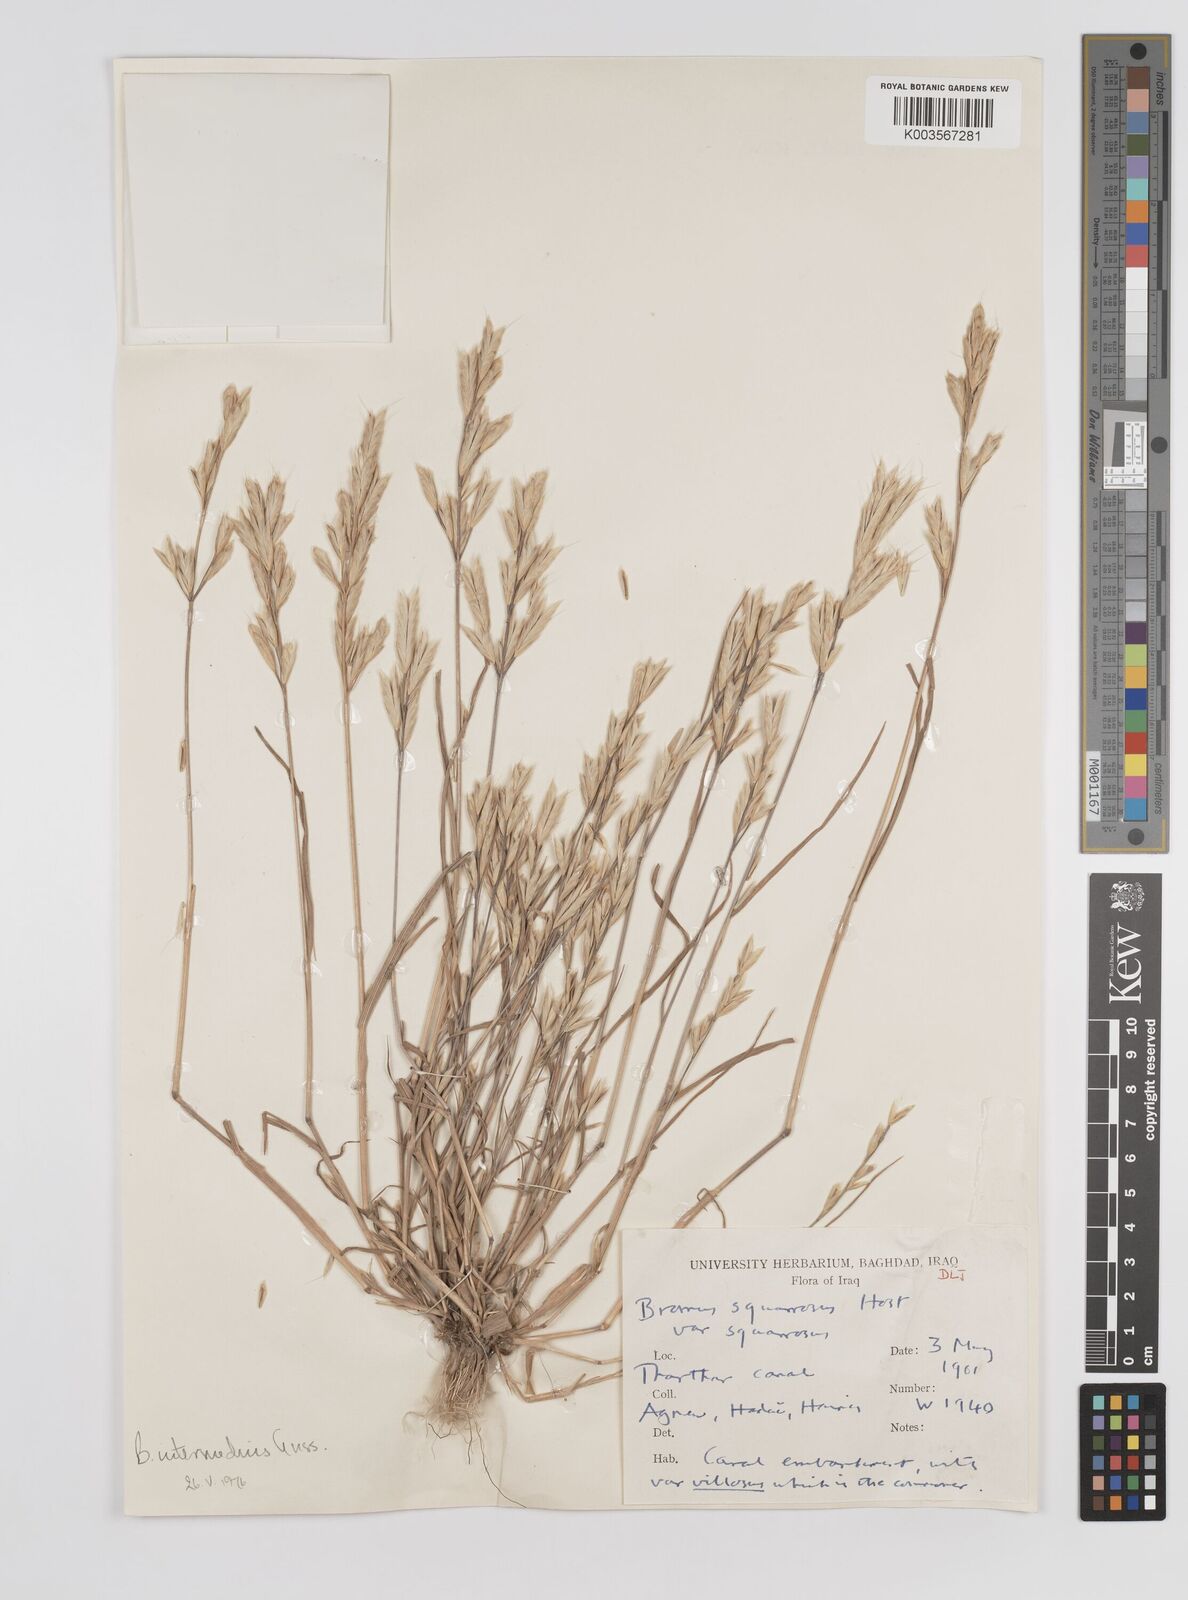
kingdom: Plantae
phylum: Tracheophyta
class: Liliopsida
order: Poales
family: Poaceae
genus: Bromus
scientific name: Bromus intermedius
